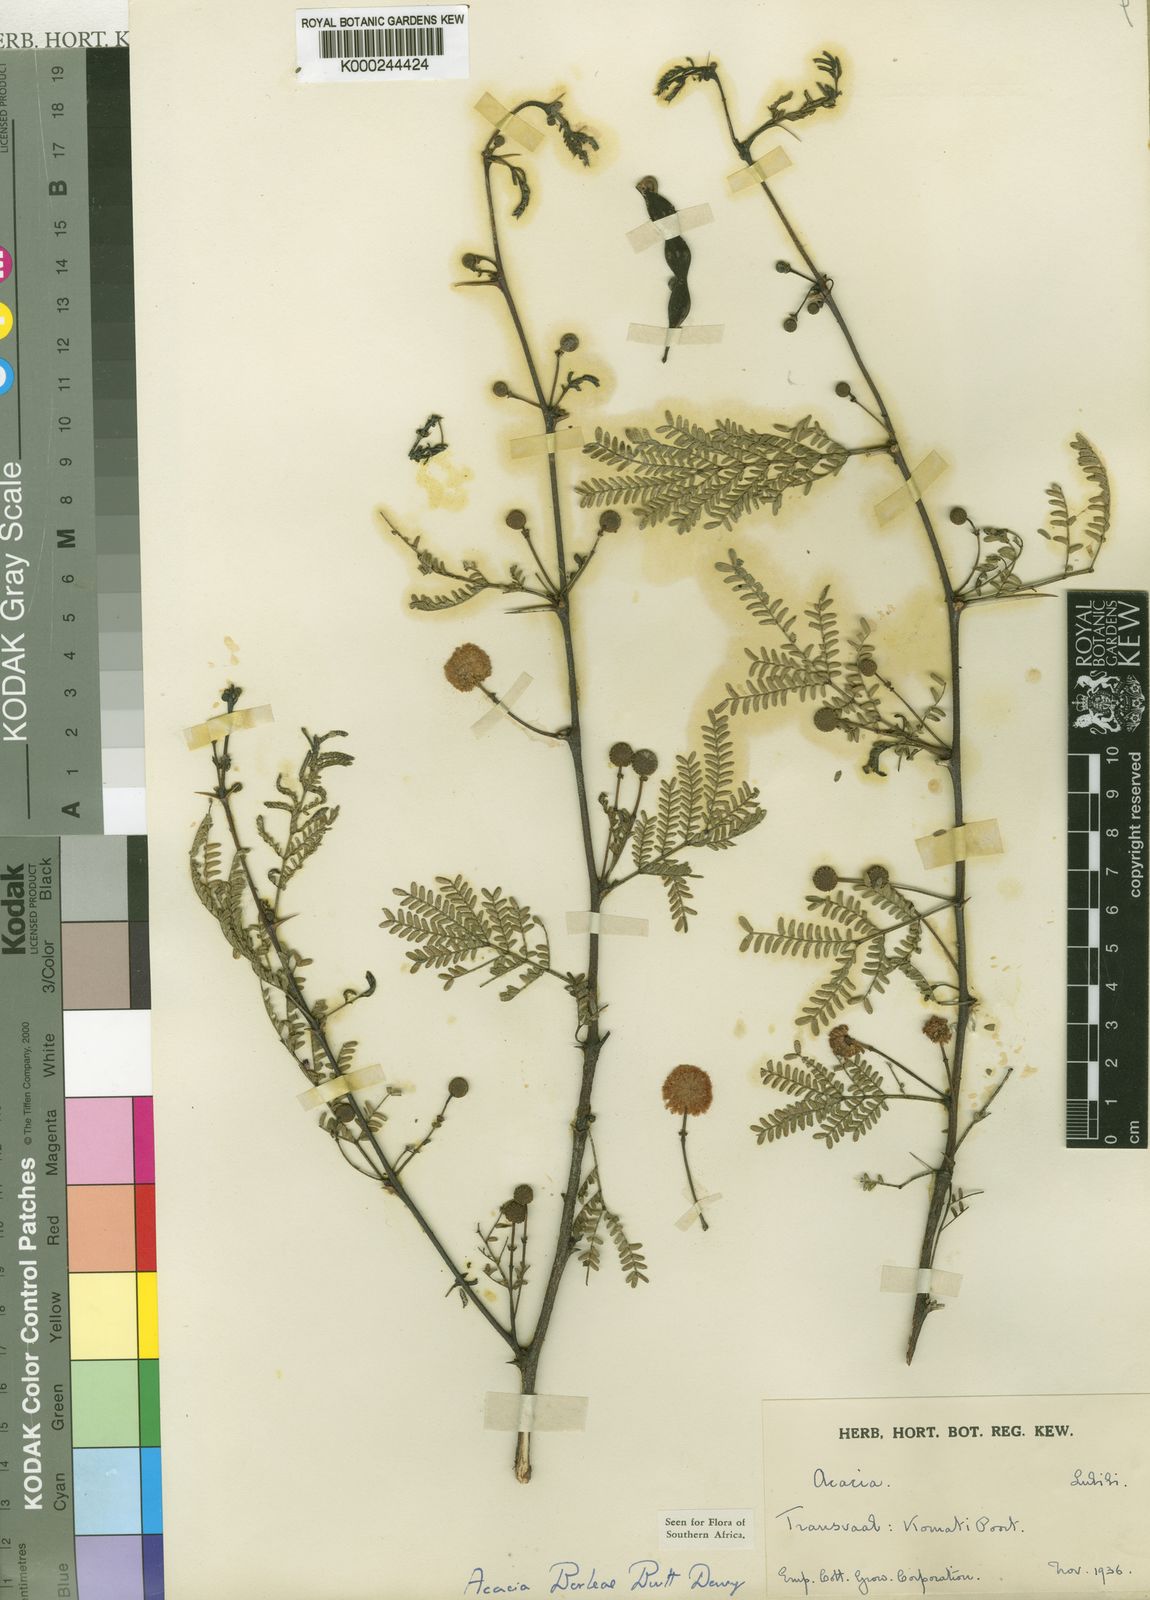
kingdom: Plantae
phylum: Tracheophyta
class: Magnoliopsida
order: Fabales
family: Fabaceae
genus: Acacia
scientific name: Acacia
